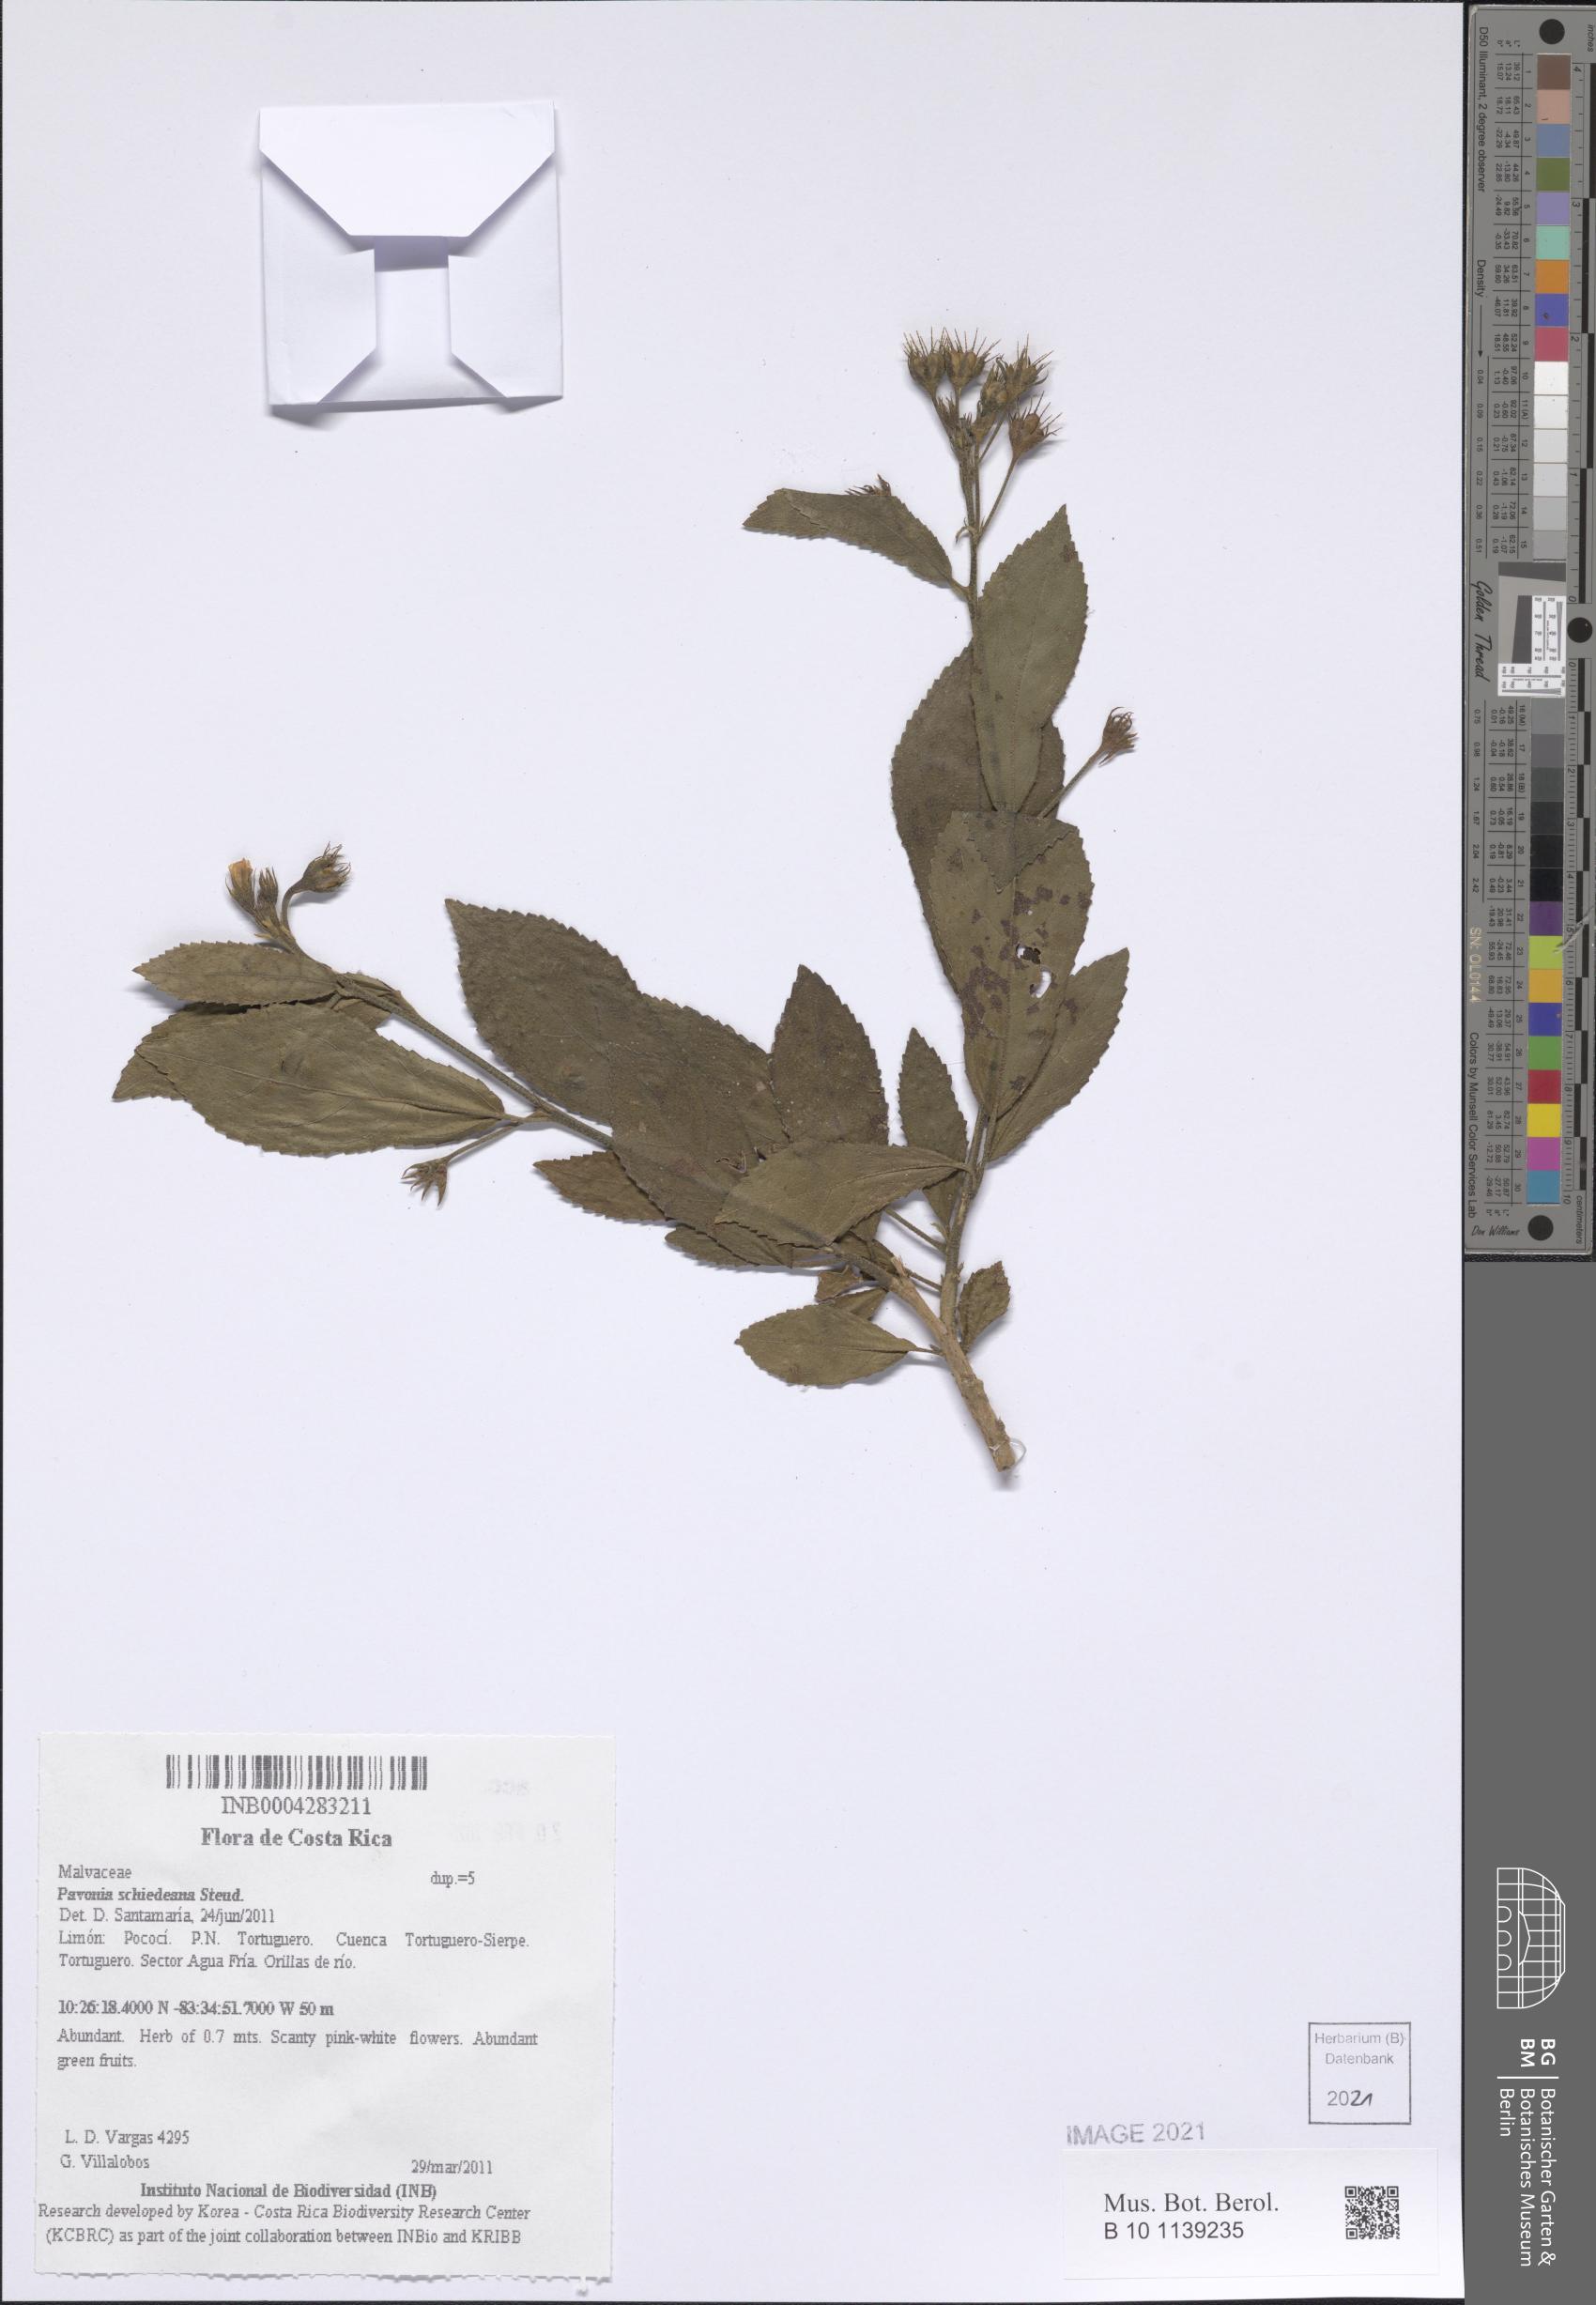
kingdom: Plantae
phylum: Tracheophyta
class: Magnoliopsida
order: Malvales
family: Malvaceae
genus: Pavonia
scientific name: Pavonia schiedeana
